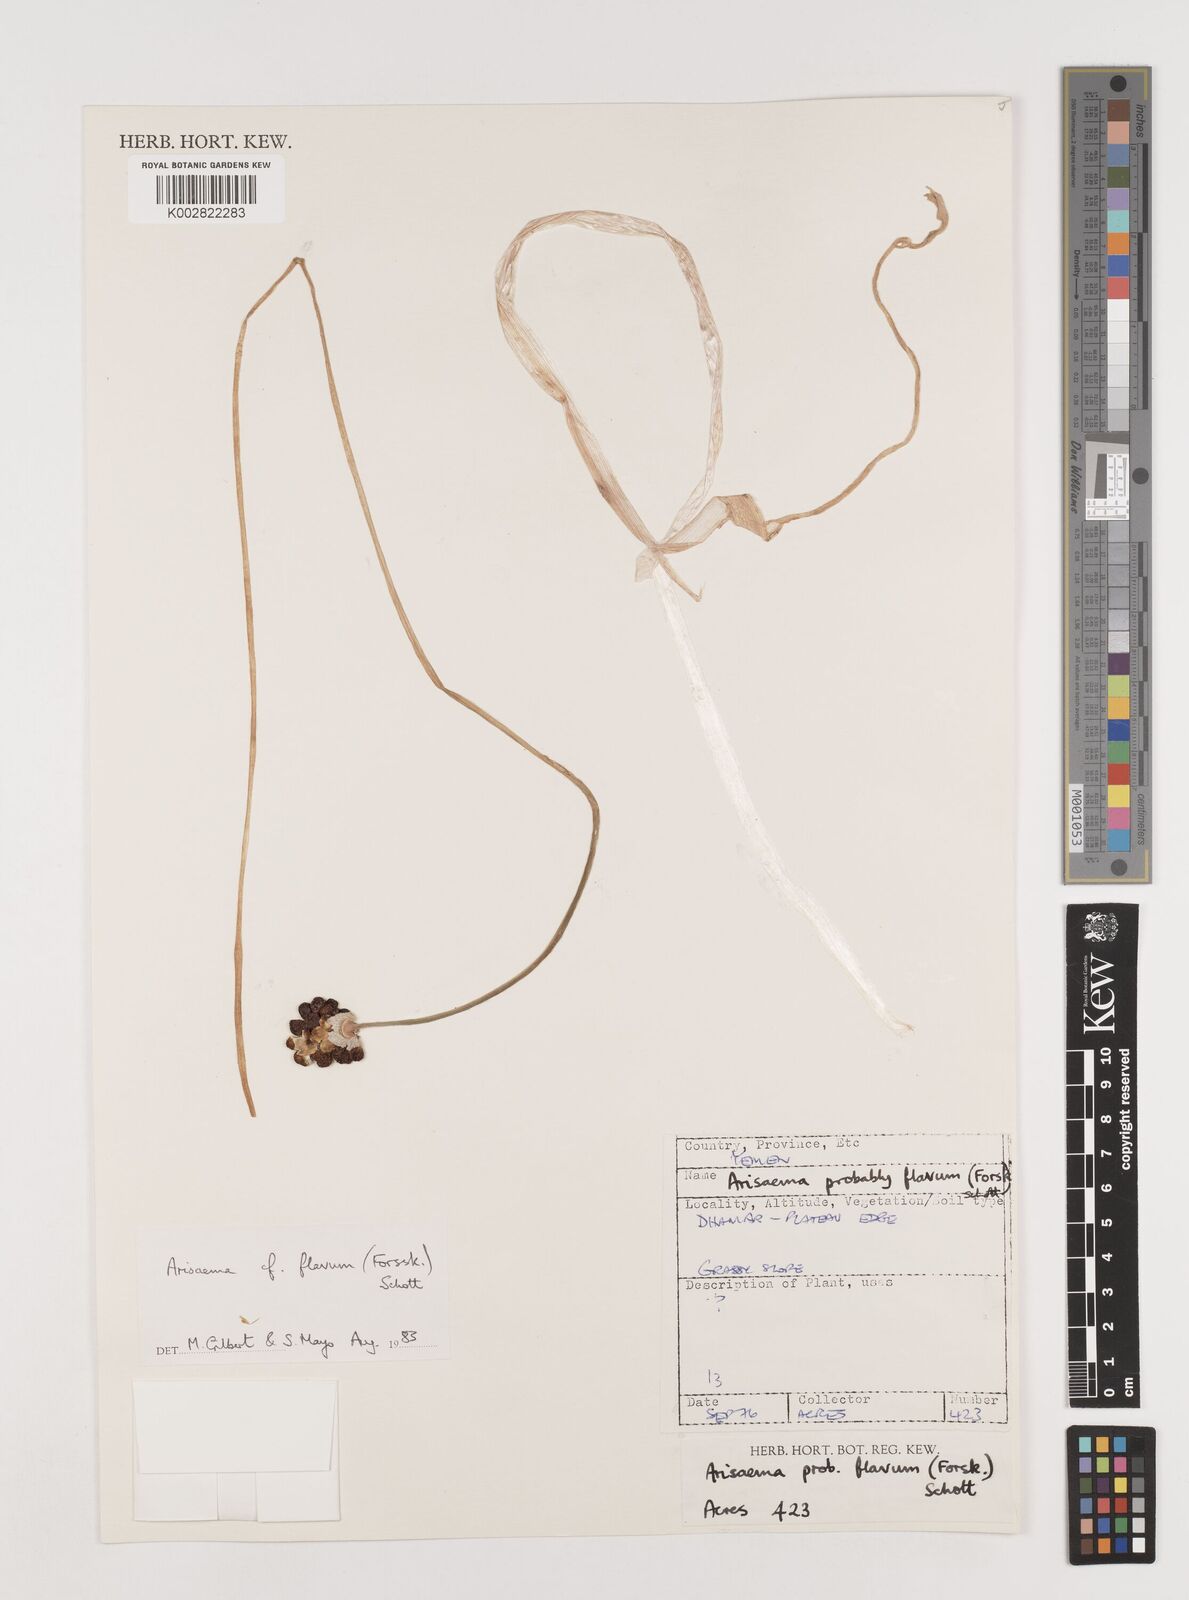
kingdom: Plantae
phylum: Tracheophyta
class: Liliopsida
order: Alismatales
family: Araceae
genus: Arisaema
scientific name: Arisaema flavum
